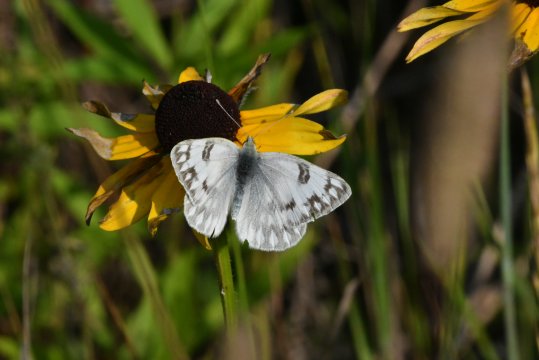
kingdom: Animalia
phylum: Arthropoda
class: Insecta
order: Lepidoptera
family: Pieridae
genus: Pontia
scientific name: Pontia occidentalis
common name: Western White
